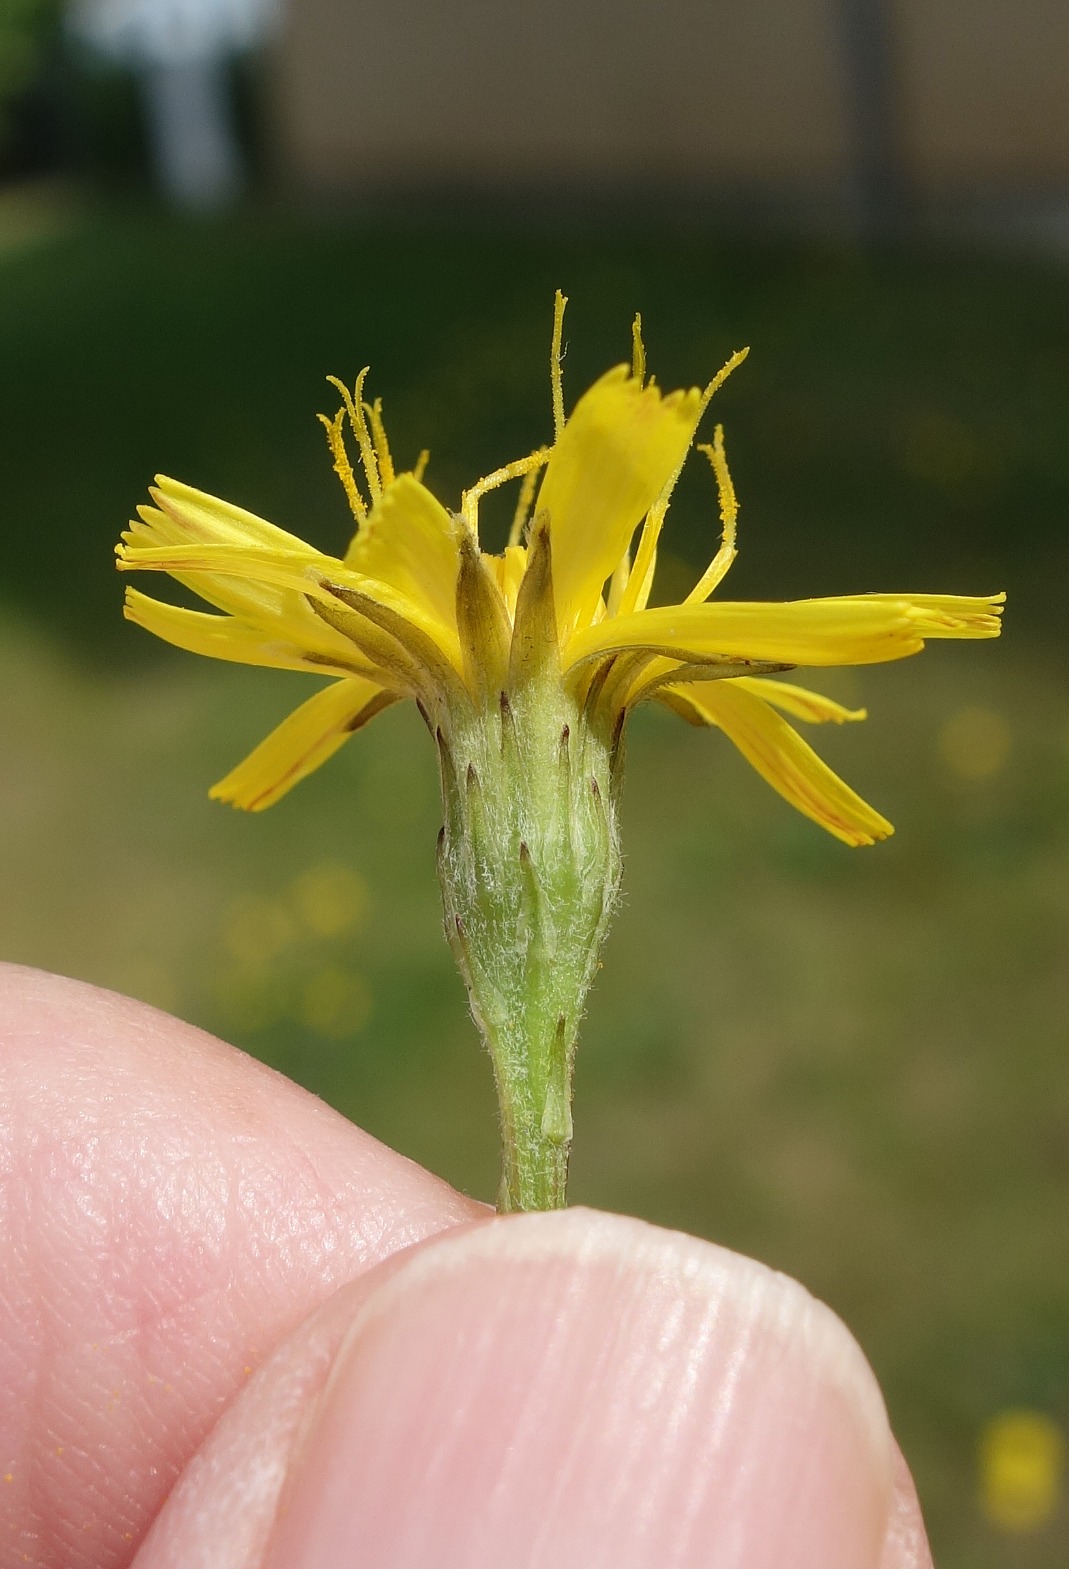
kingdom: Plantae
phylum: Tracheophyta
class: Magnoliopsida
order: Asterales
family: Asteraceae
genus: Scorzoneroides
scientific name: Scorzoneroides autumnalis
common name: Høst-borst
